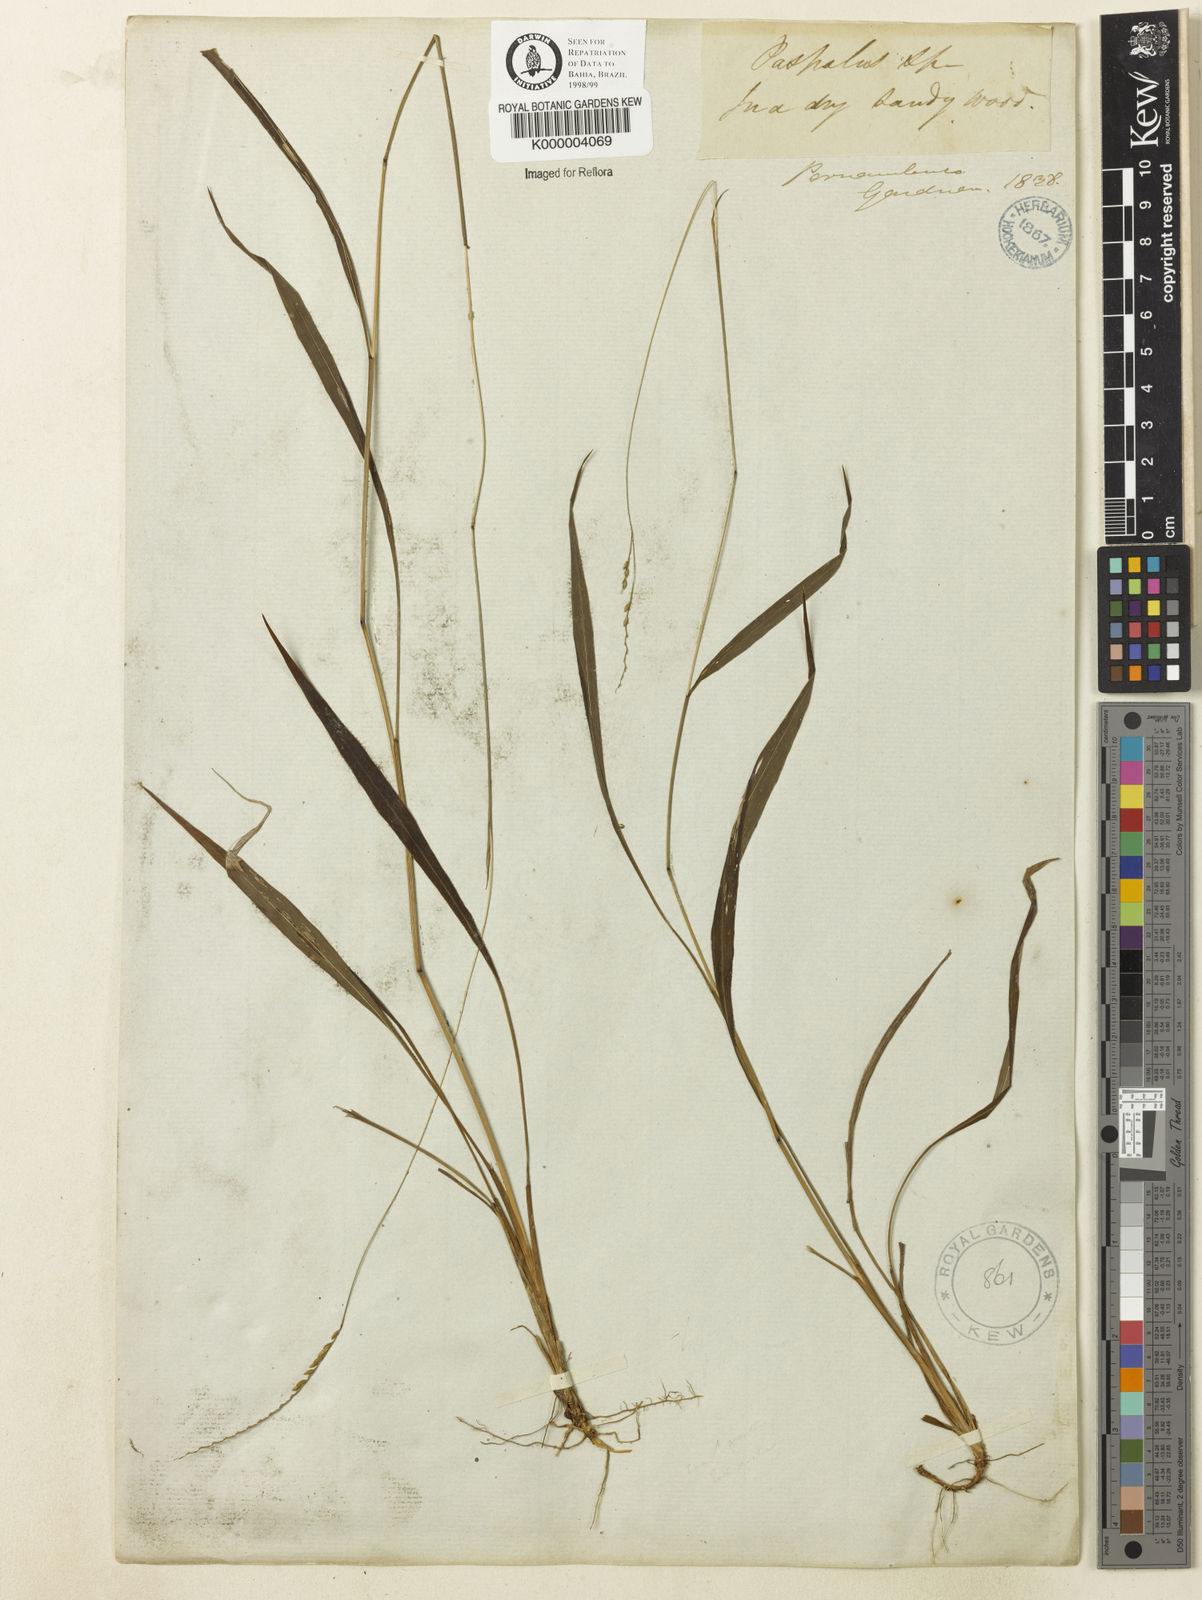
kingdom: Plantae
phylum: Tracheophyta
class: Liliopsida
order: Poales
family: Poaceae
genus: Paspalum
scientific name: Paspalum molle
